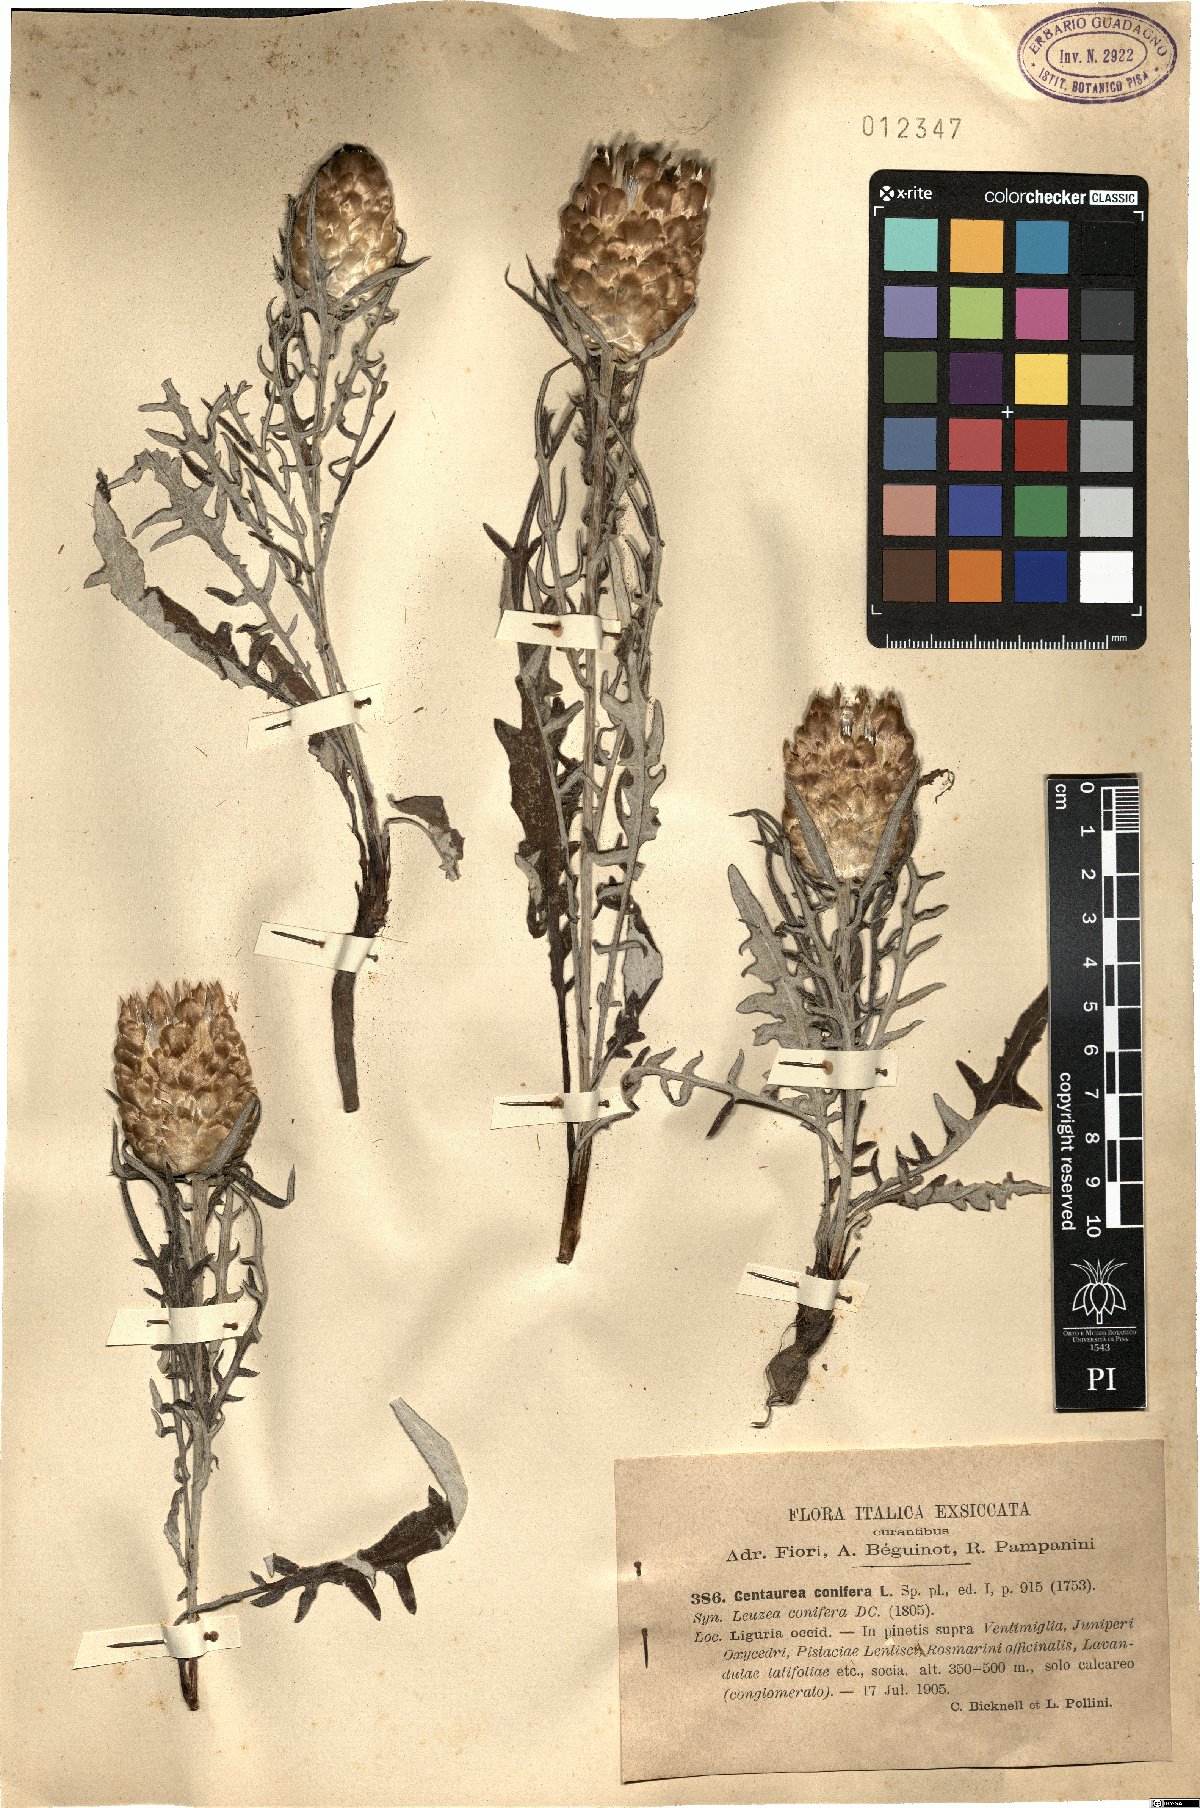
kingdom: Plantae
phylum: Tracheophyta
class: Magnoliopsida
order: Asterales
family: Asteraceae
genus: Leuzea
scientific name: Leuzea conifera
